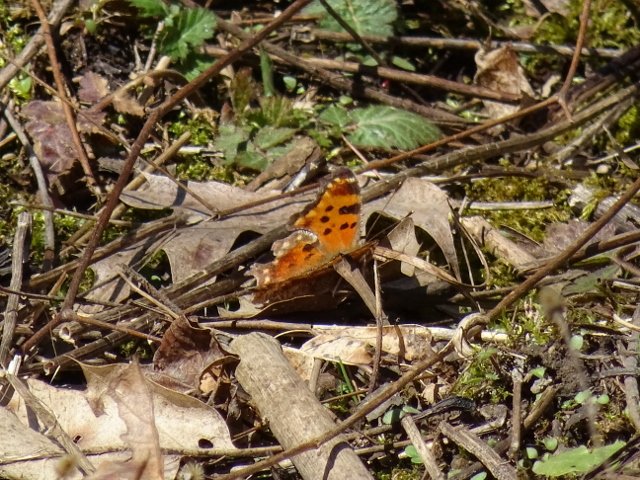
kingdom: Animalia
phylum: Arthropoda
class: Insecta
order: Lepidoptera
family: Nymphalidae
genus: Polygonia
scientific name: Polygonia
